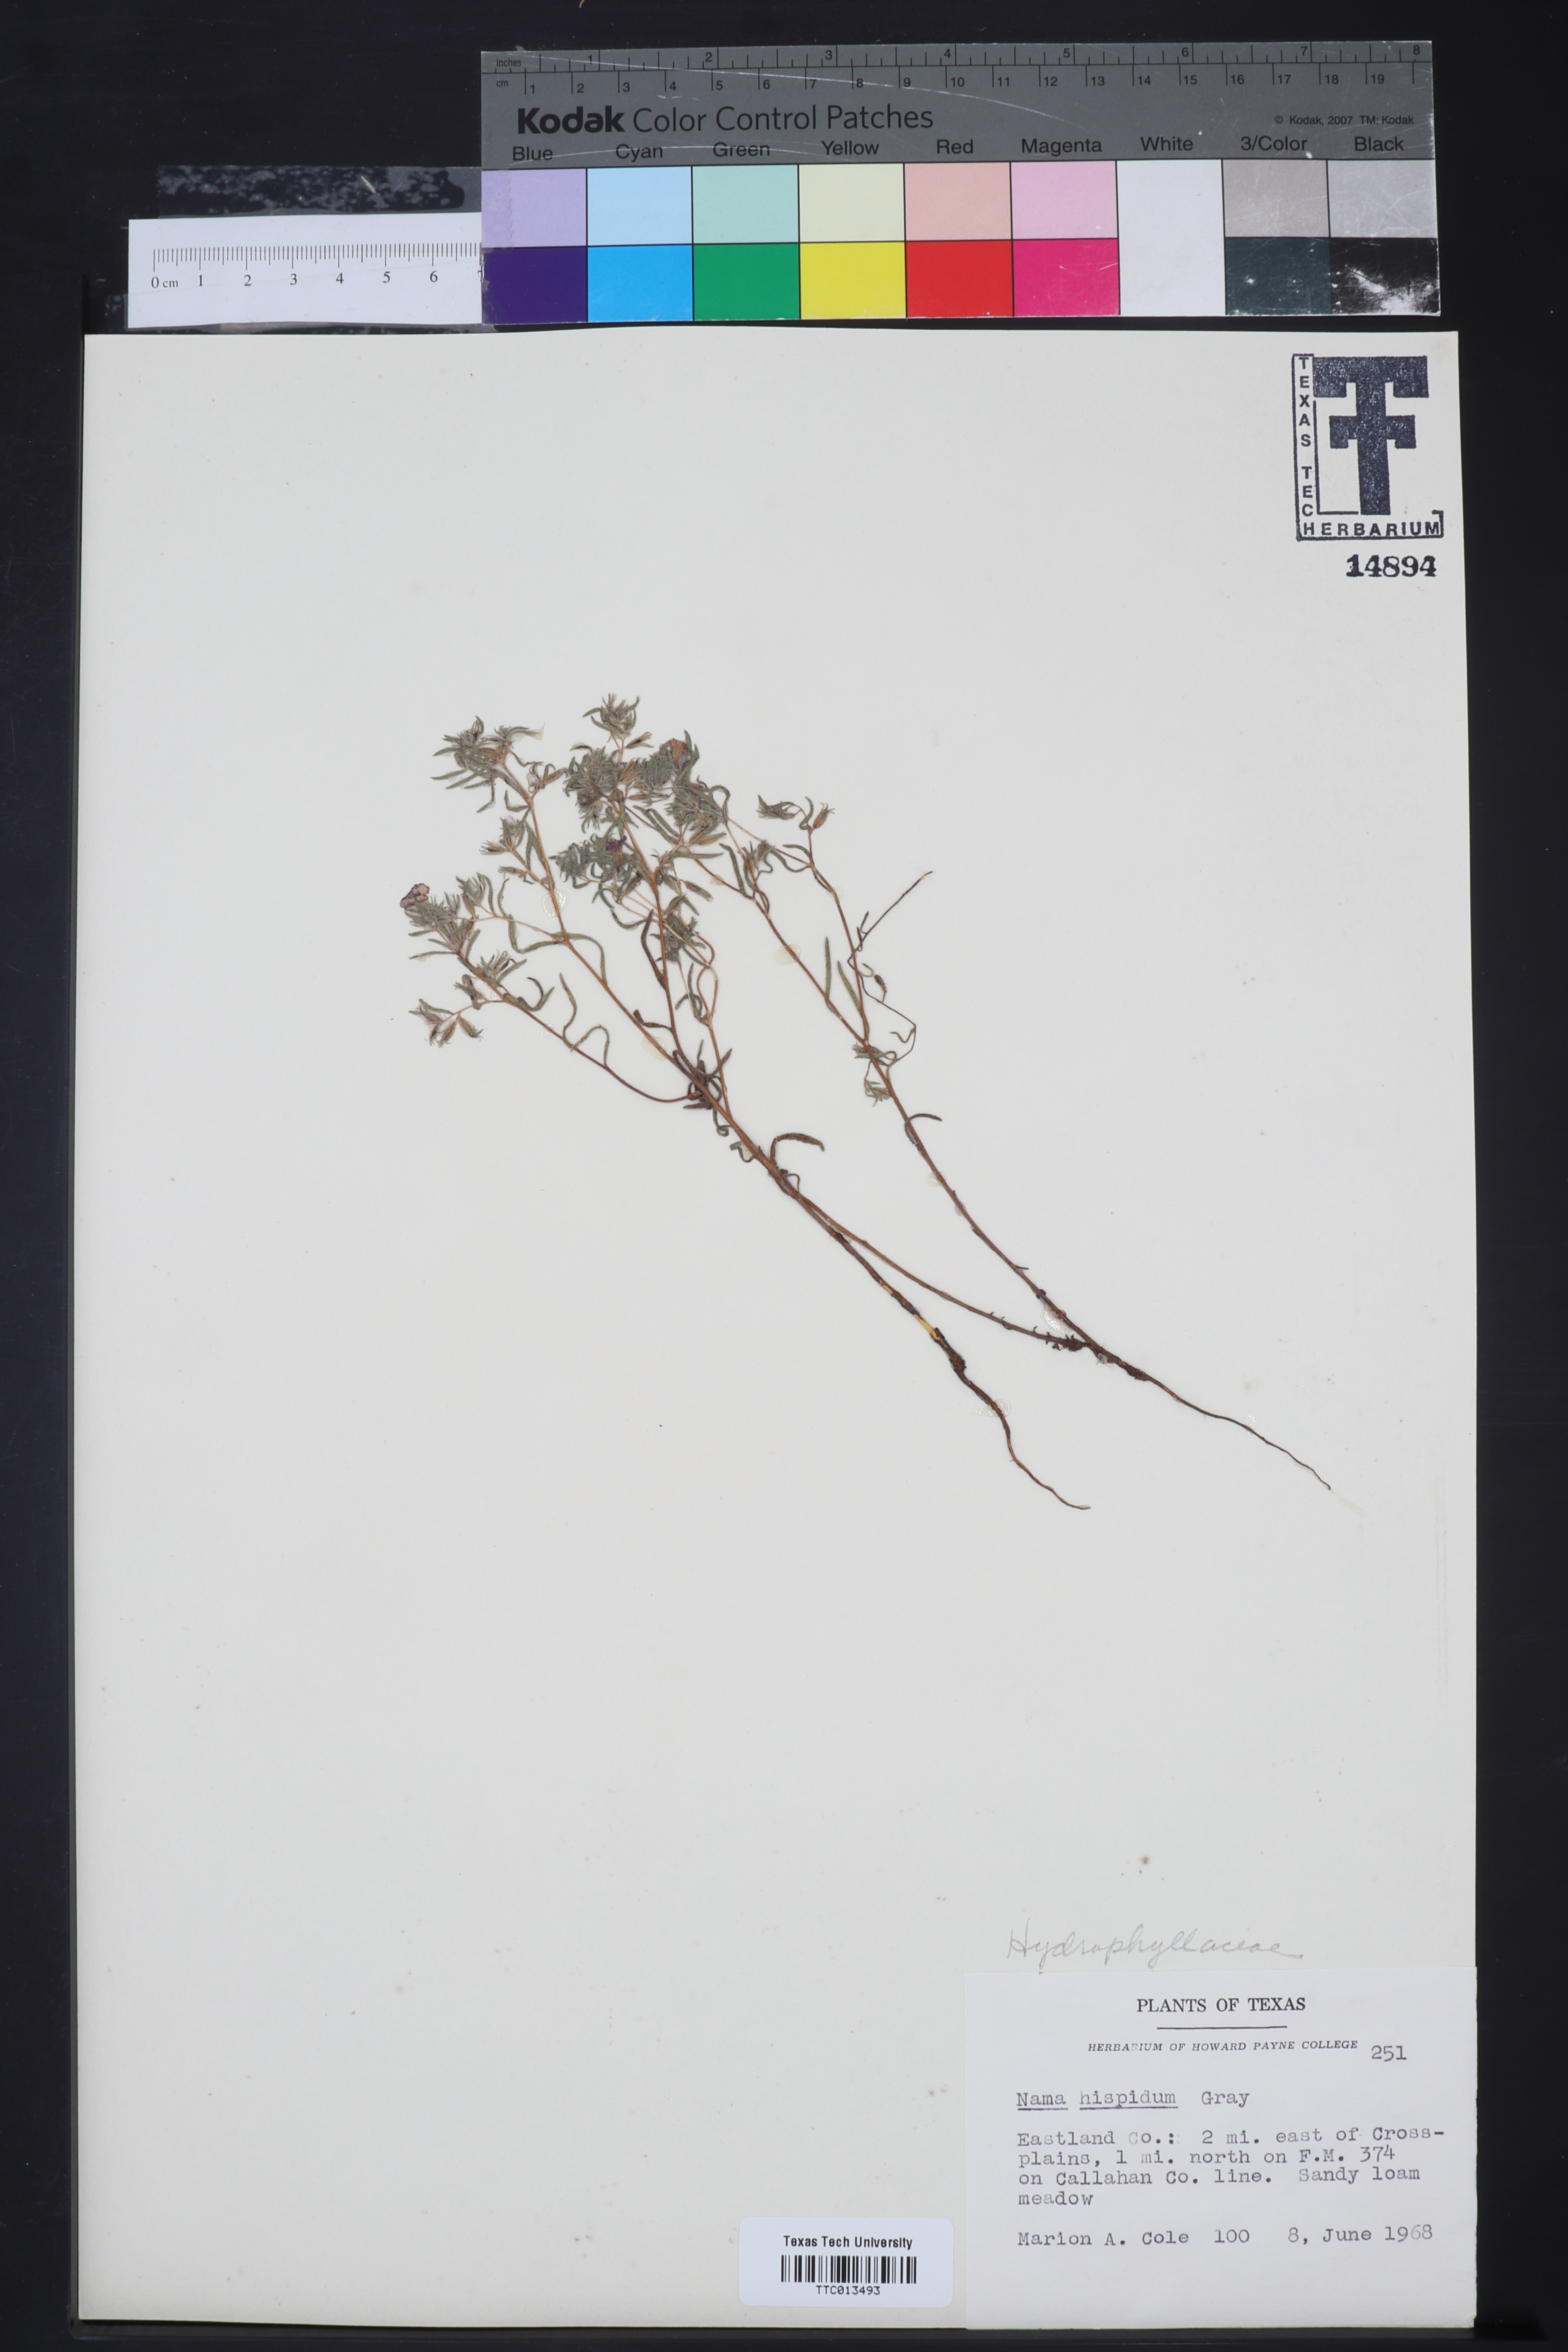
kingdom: Plantae
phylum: Tracheophyta
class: Magnoliopsida
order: Boraginales
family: Namaceae
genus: Nama
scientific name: Nama hispida
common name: Bristly nama
